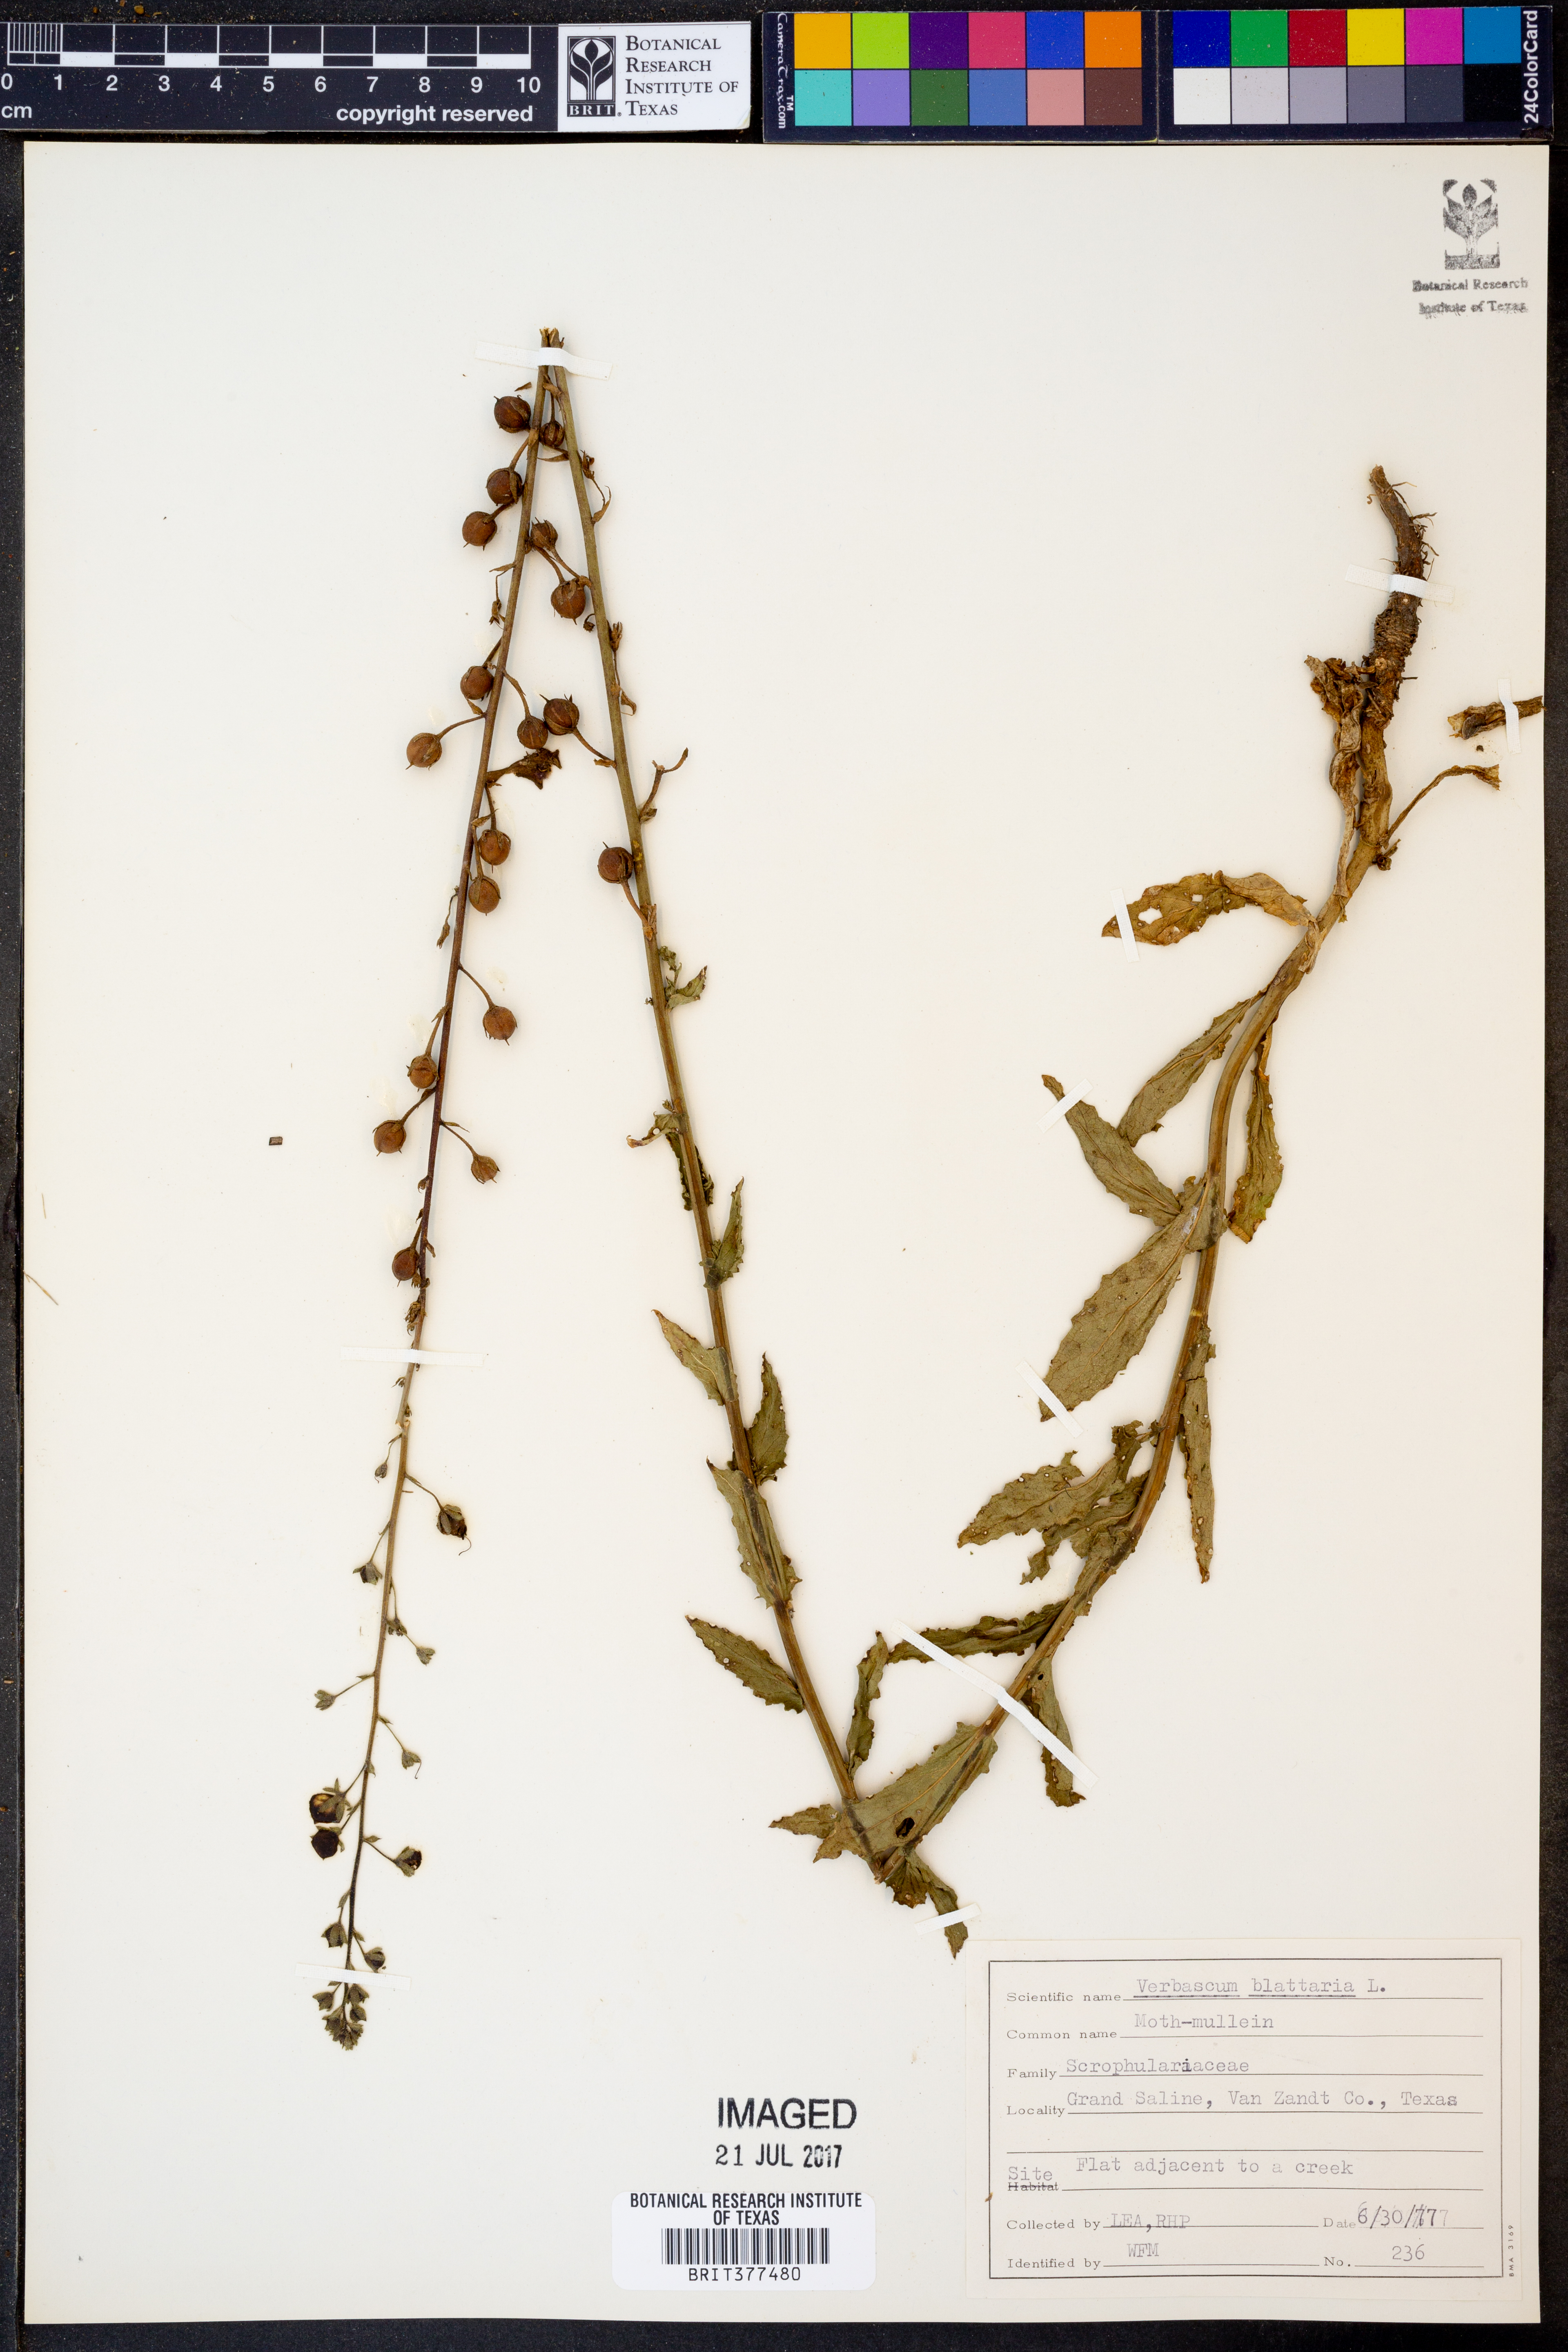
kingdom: Plantae
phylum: Tracheophyta
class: Magnoliopsida
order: Lamiales
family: Scrophulariaceae
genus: Verbascum
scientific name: Verbascum blattaria
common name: Moth mullein
